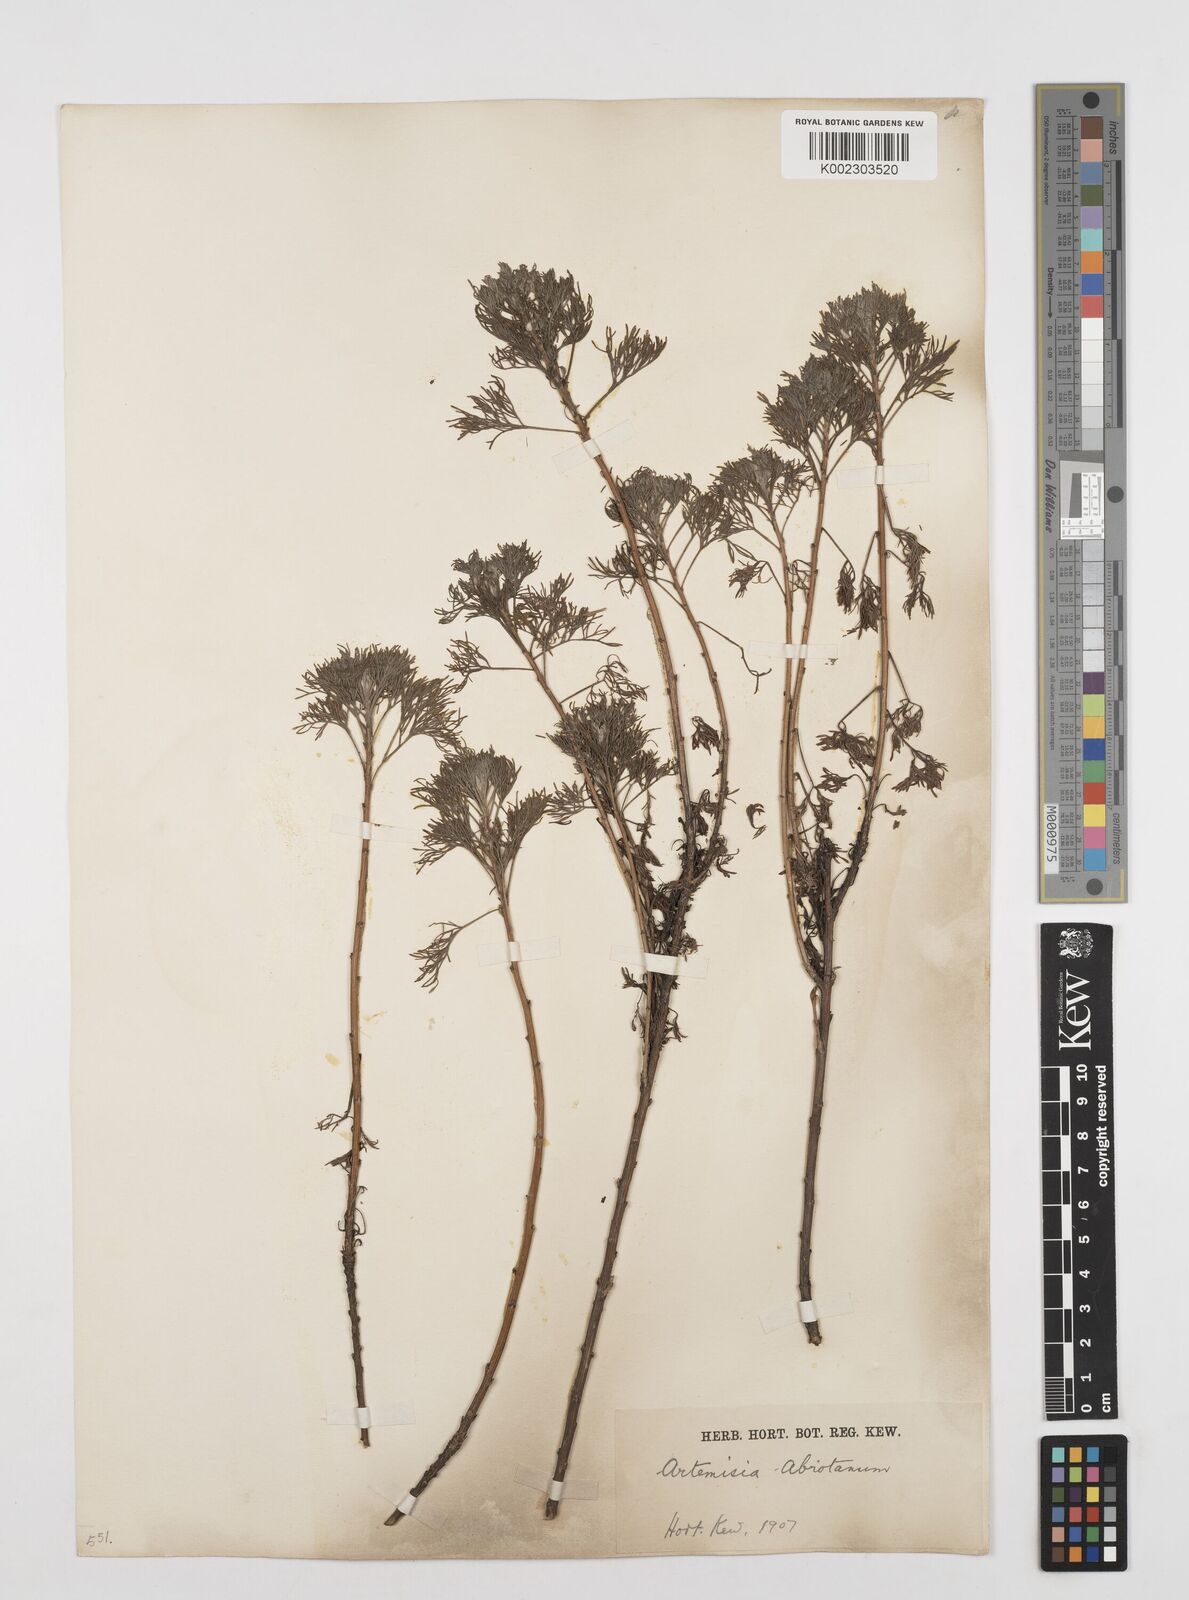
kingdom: Plantae
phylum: Tracheophyta
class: Magnoliopsida
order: Asterales
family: Asteraceae
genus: Artemisia
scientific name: Artemisia abrotanum
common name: Southernwood
